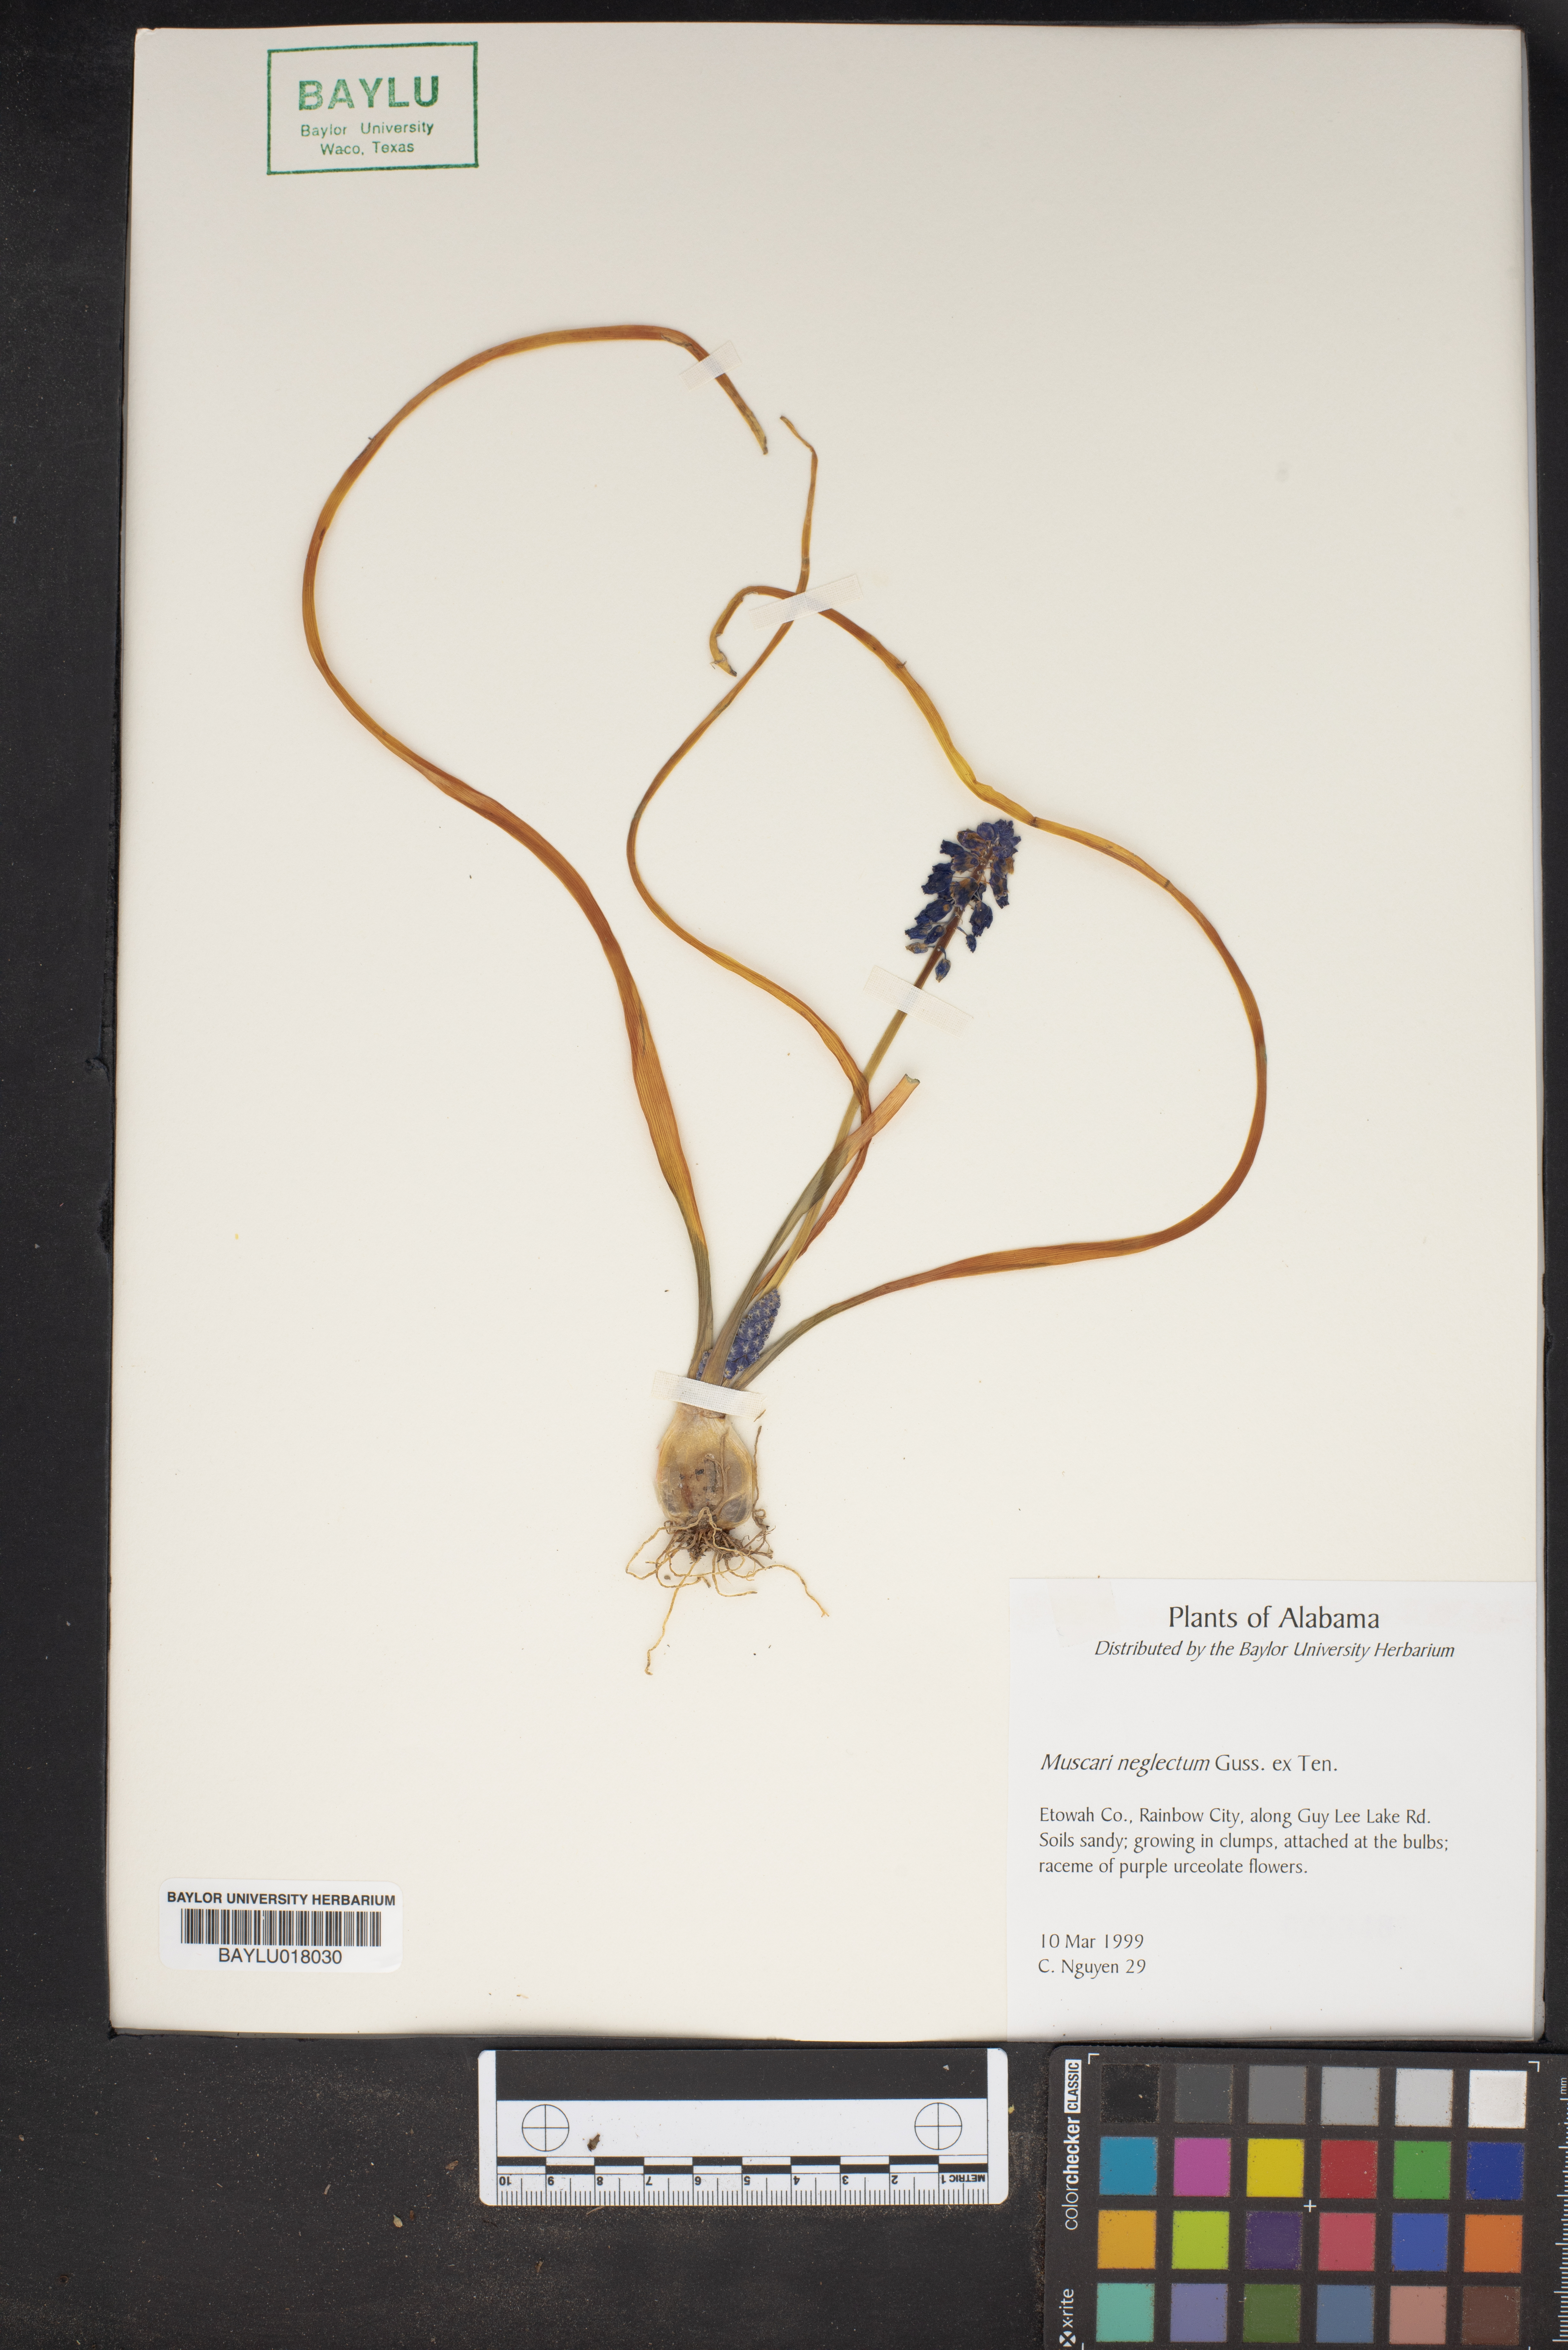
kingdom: Plantae
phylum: Tracheophyta
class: Liliopsida
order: Asparagales
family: Asparagaceae
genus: Muscari
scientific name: Muscari neglectum
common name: Grape-hyacinth
